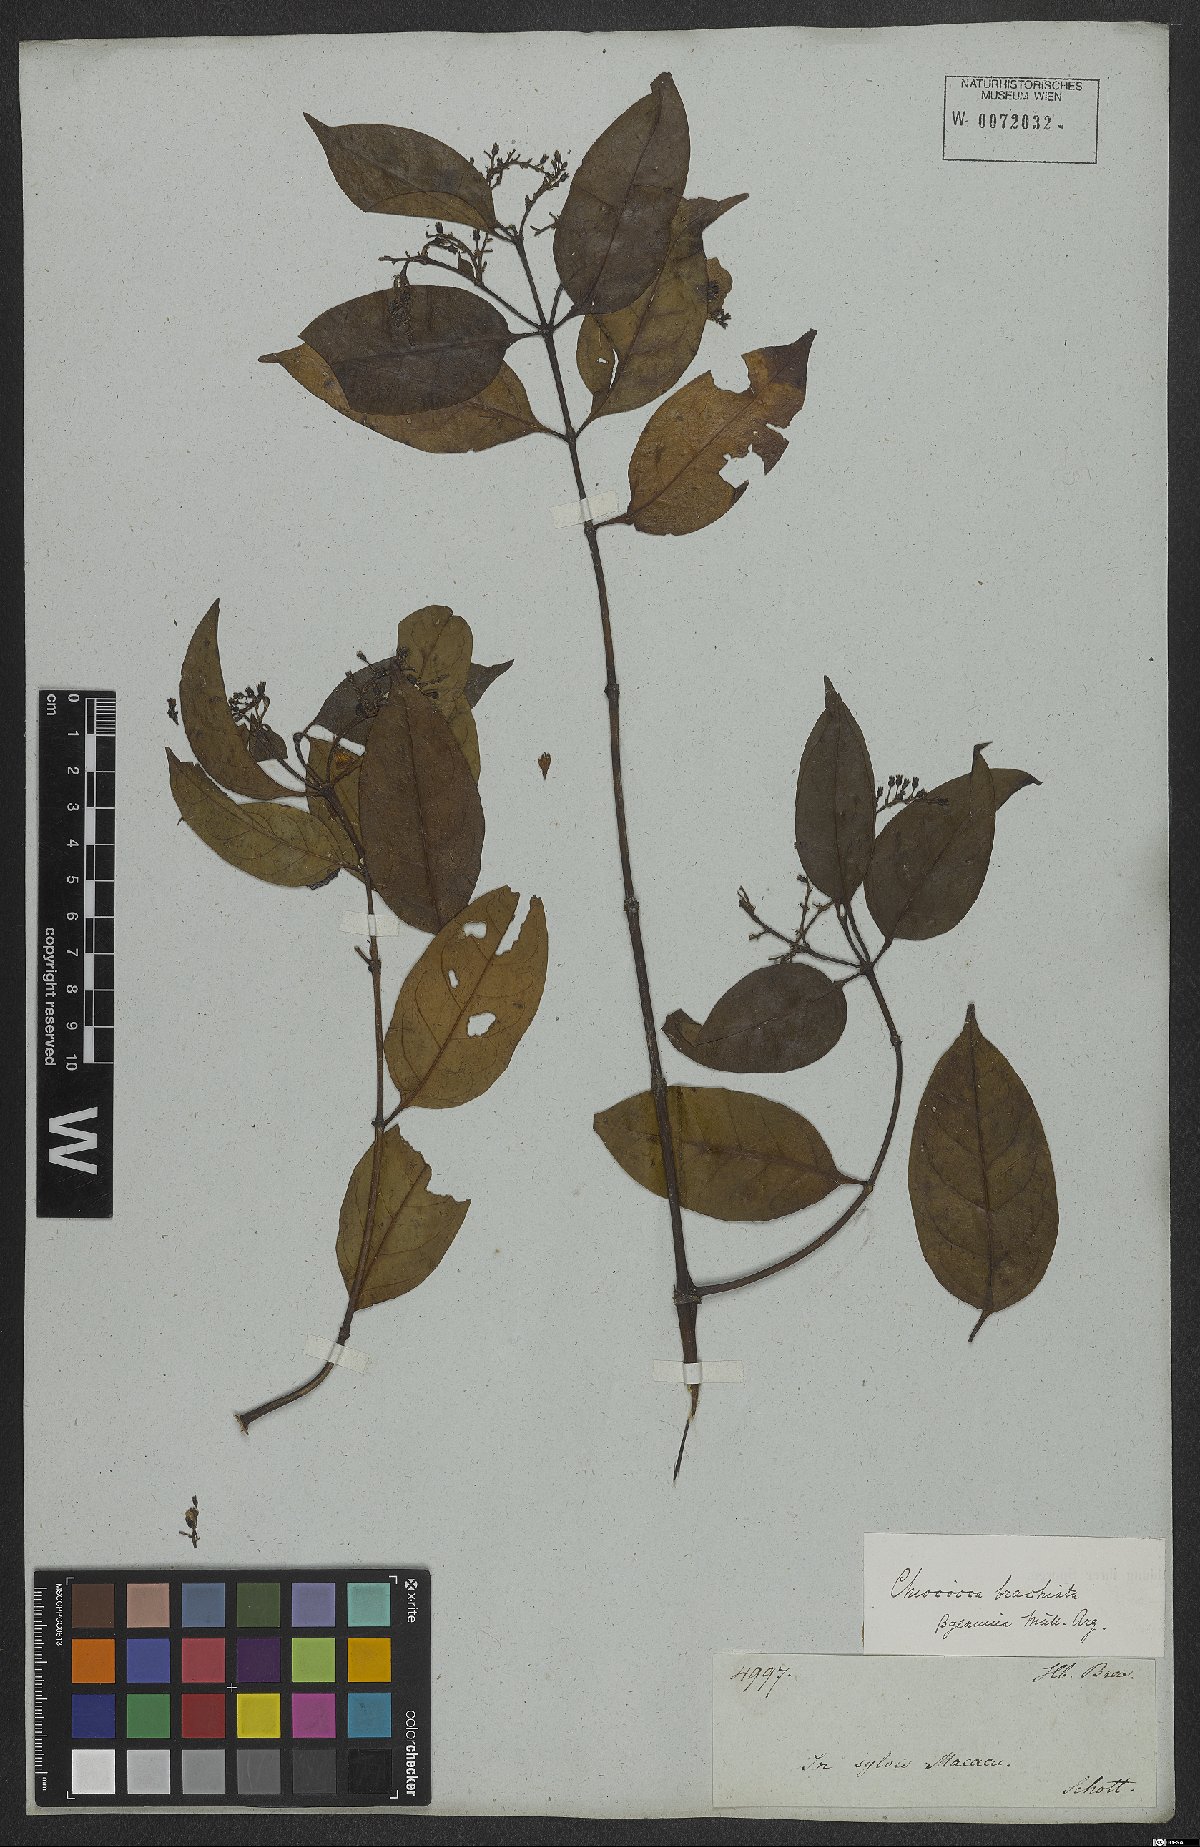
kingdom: Plantae
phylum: Tracheophyta
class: Magnoliopsida
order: Gentianales
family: Rubiaceae
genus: Chiococca
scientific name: Chiococca alba
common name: Snowberry
